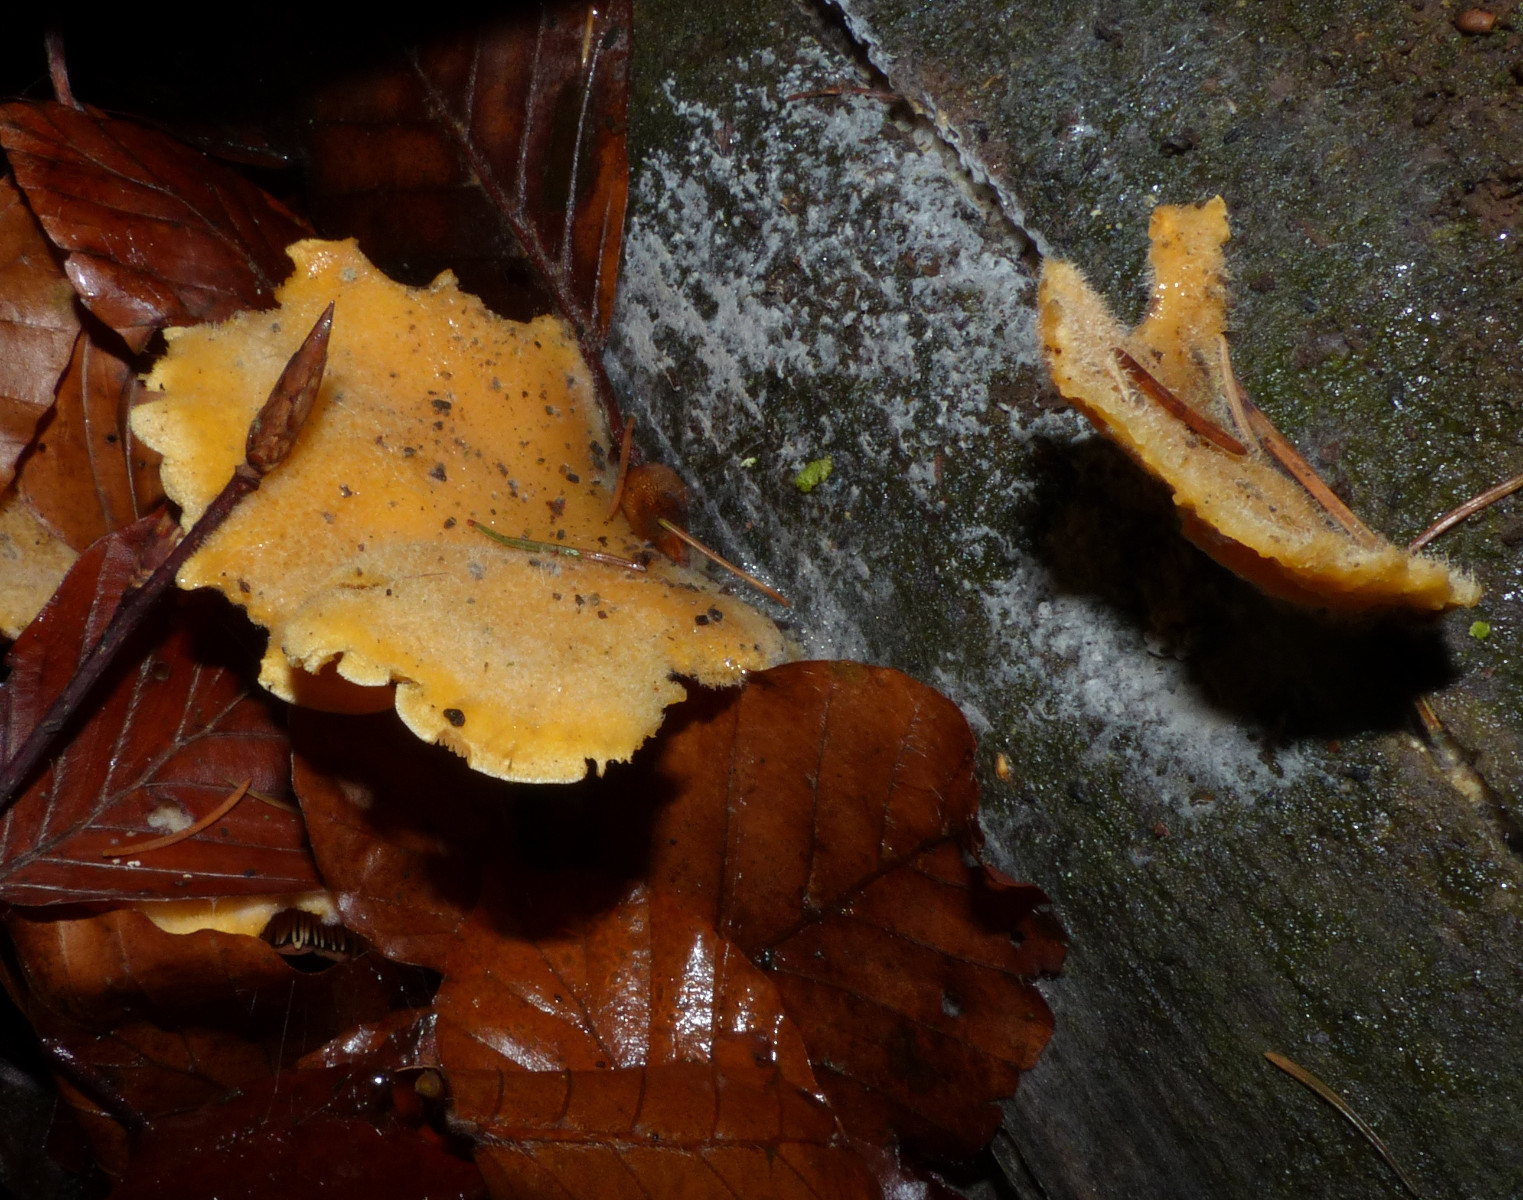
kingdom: Fungi
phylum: Basidiomycota
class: Agaricomycetes
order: Agaricales
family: Phyllotopsidaceae
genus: Phyllotopsis
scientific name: Phyllotopsis nidulans
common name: okkerblad
